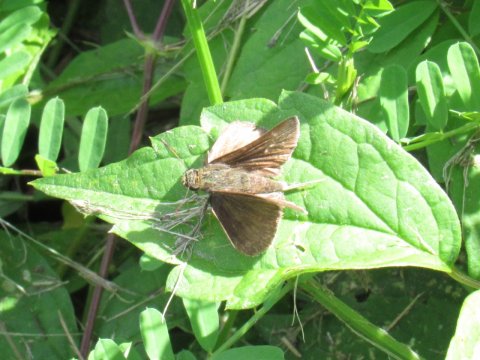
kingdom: Animalia
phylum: Arthropoda
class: Insecta
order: Lepidoptera
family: Hesperiidae
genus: Euphyes
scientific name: Euphyes vestris
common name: Dun Skipper
